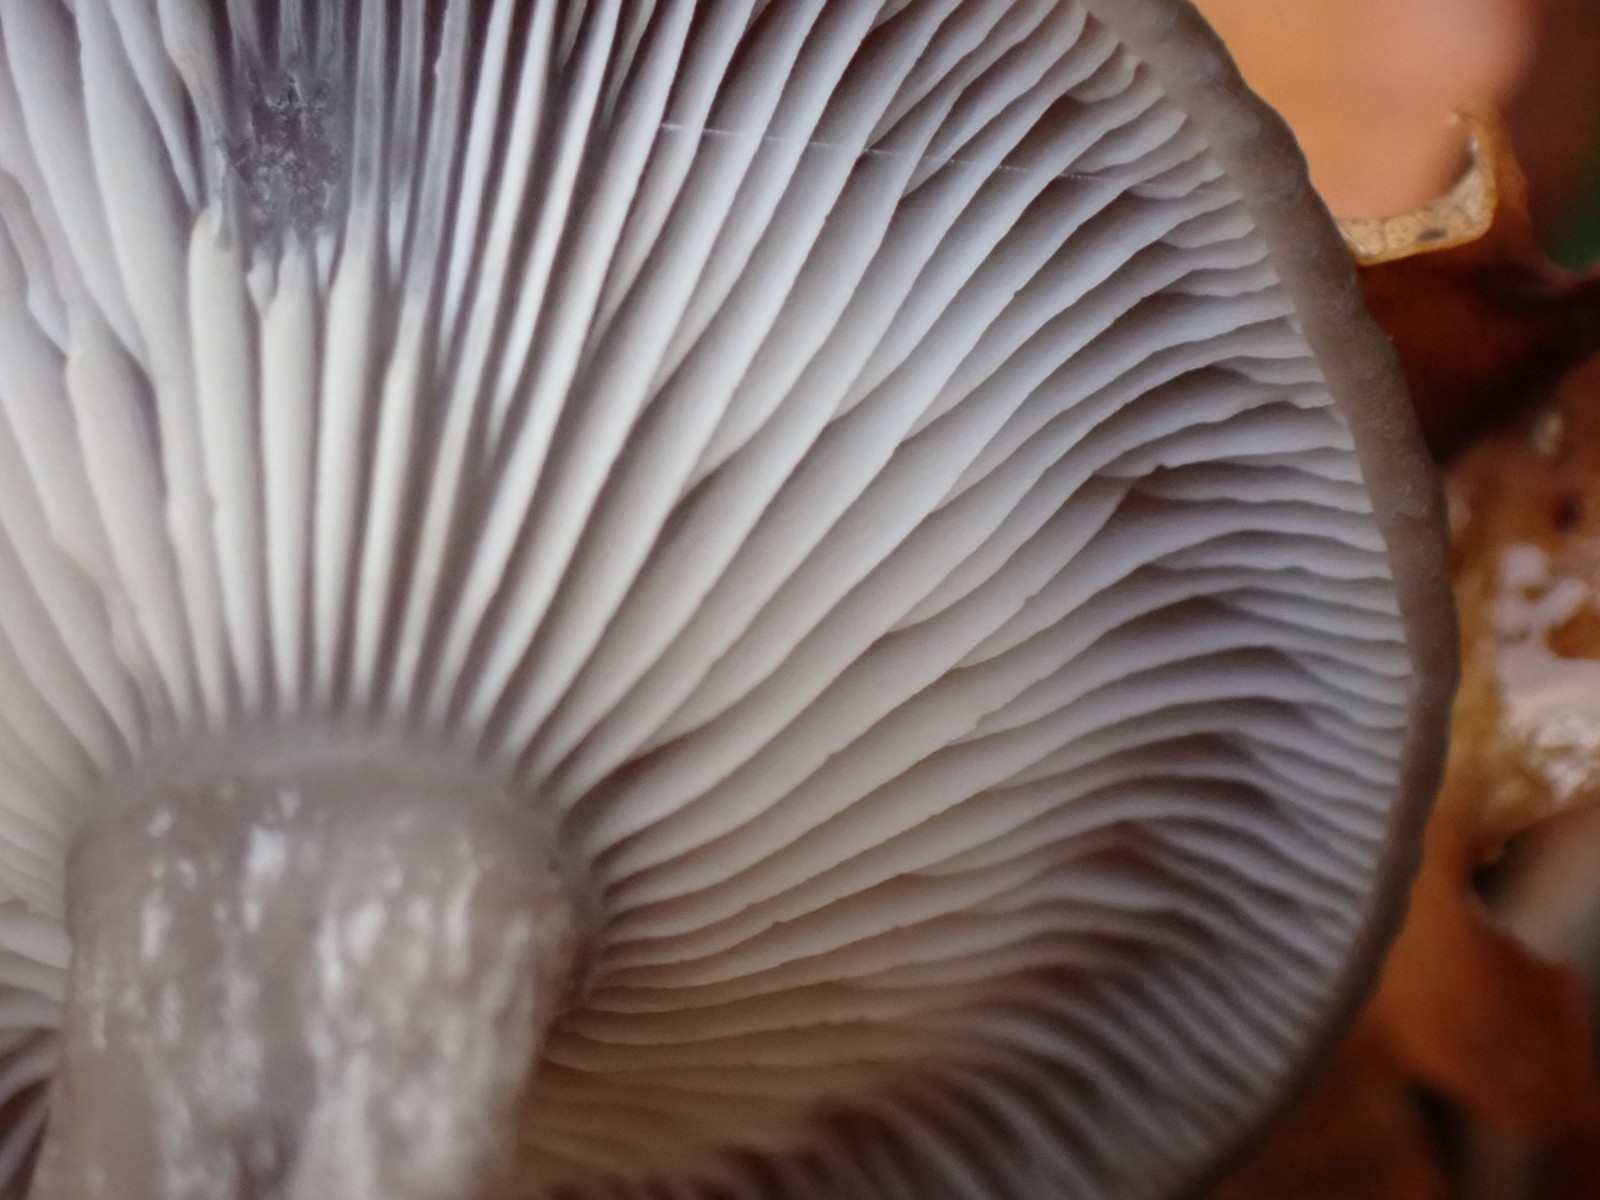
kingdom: Fungi
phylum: Basidiomycota
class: Agaricomycetes
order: Agaricales
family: Pseudoclitocybaceae
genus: Pseudoclitocybe
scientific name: Pseudoclitocybe cyathiformis
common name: almindelig bægertragthat
